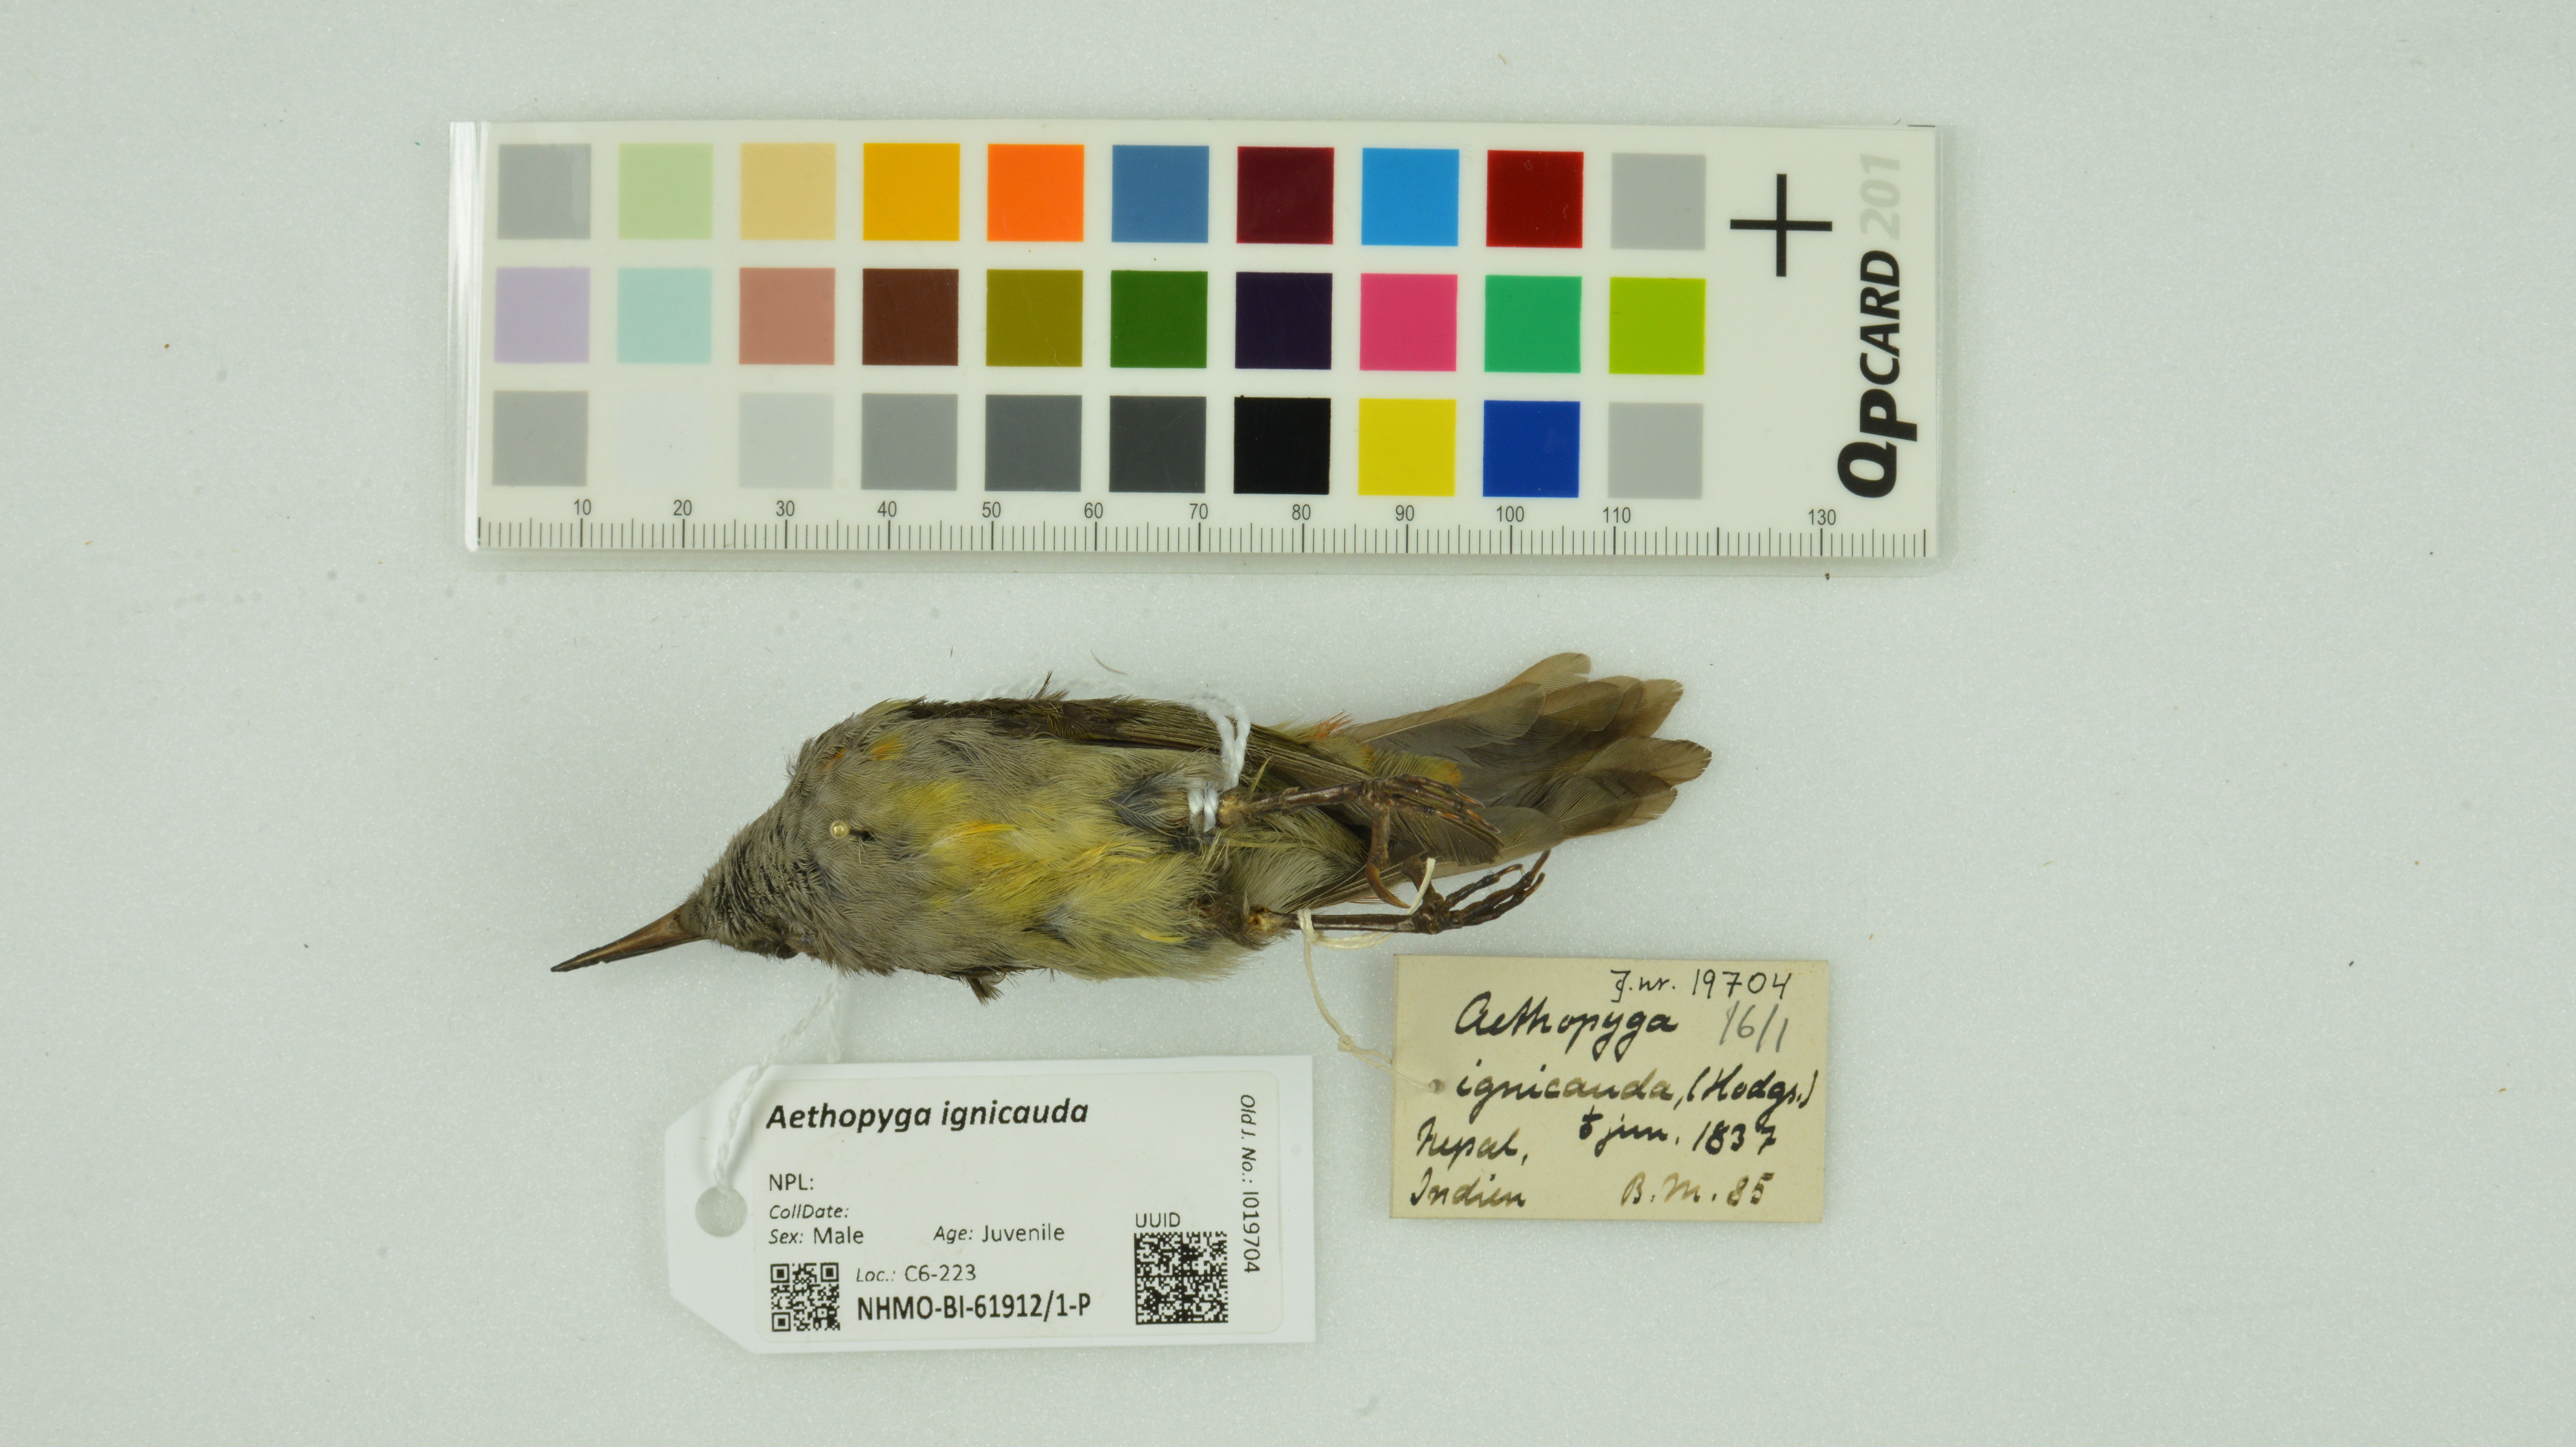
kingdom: Animalia
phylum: Chordata
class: Aves
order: Passeriformes
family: Nectariniidae
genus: Aethopyga
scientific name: Aethopyga ignicauda
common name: Fire-tailed sunbird
